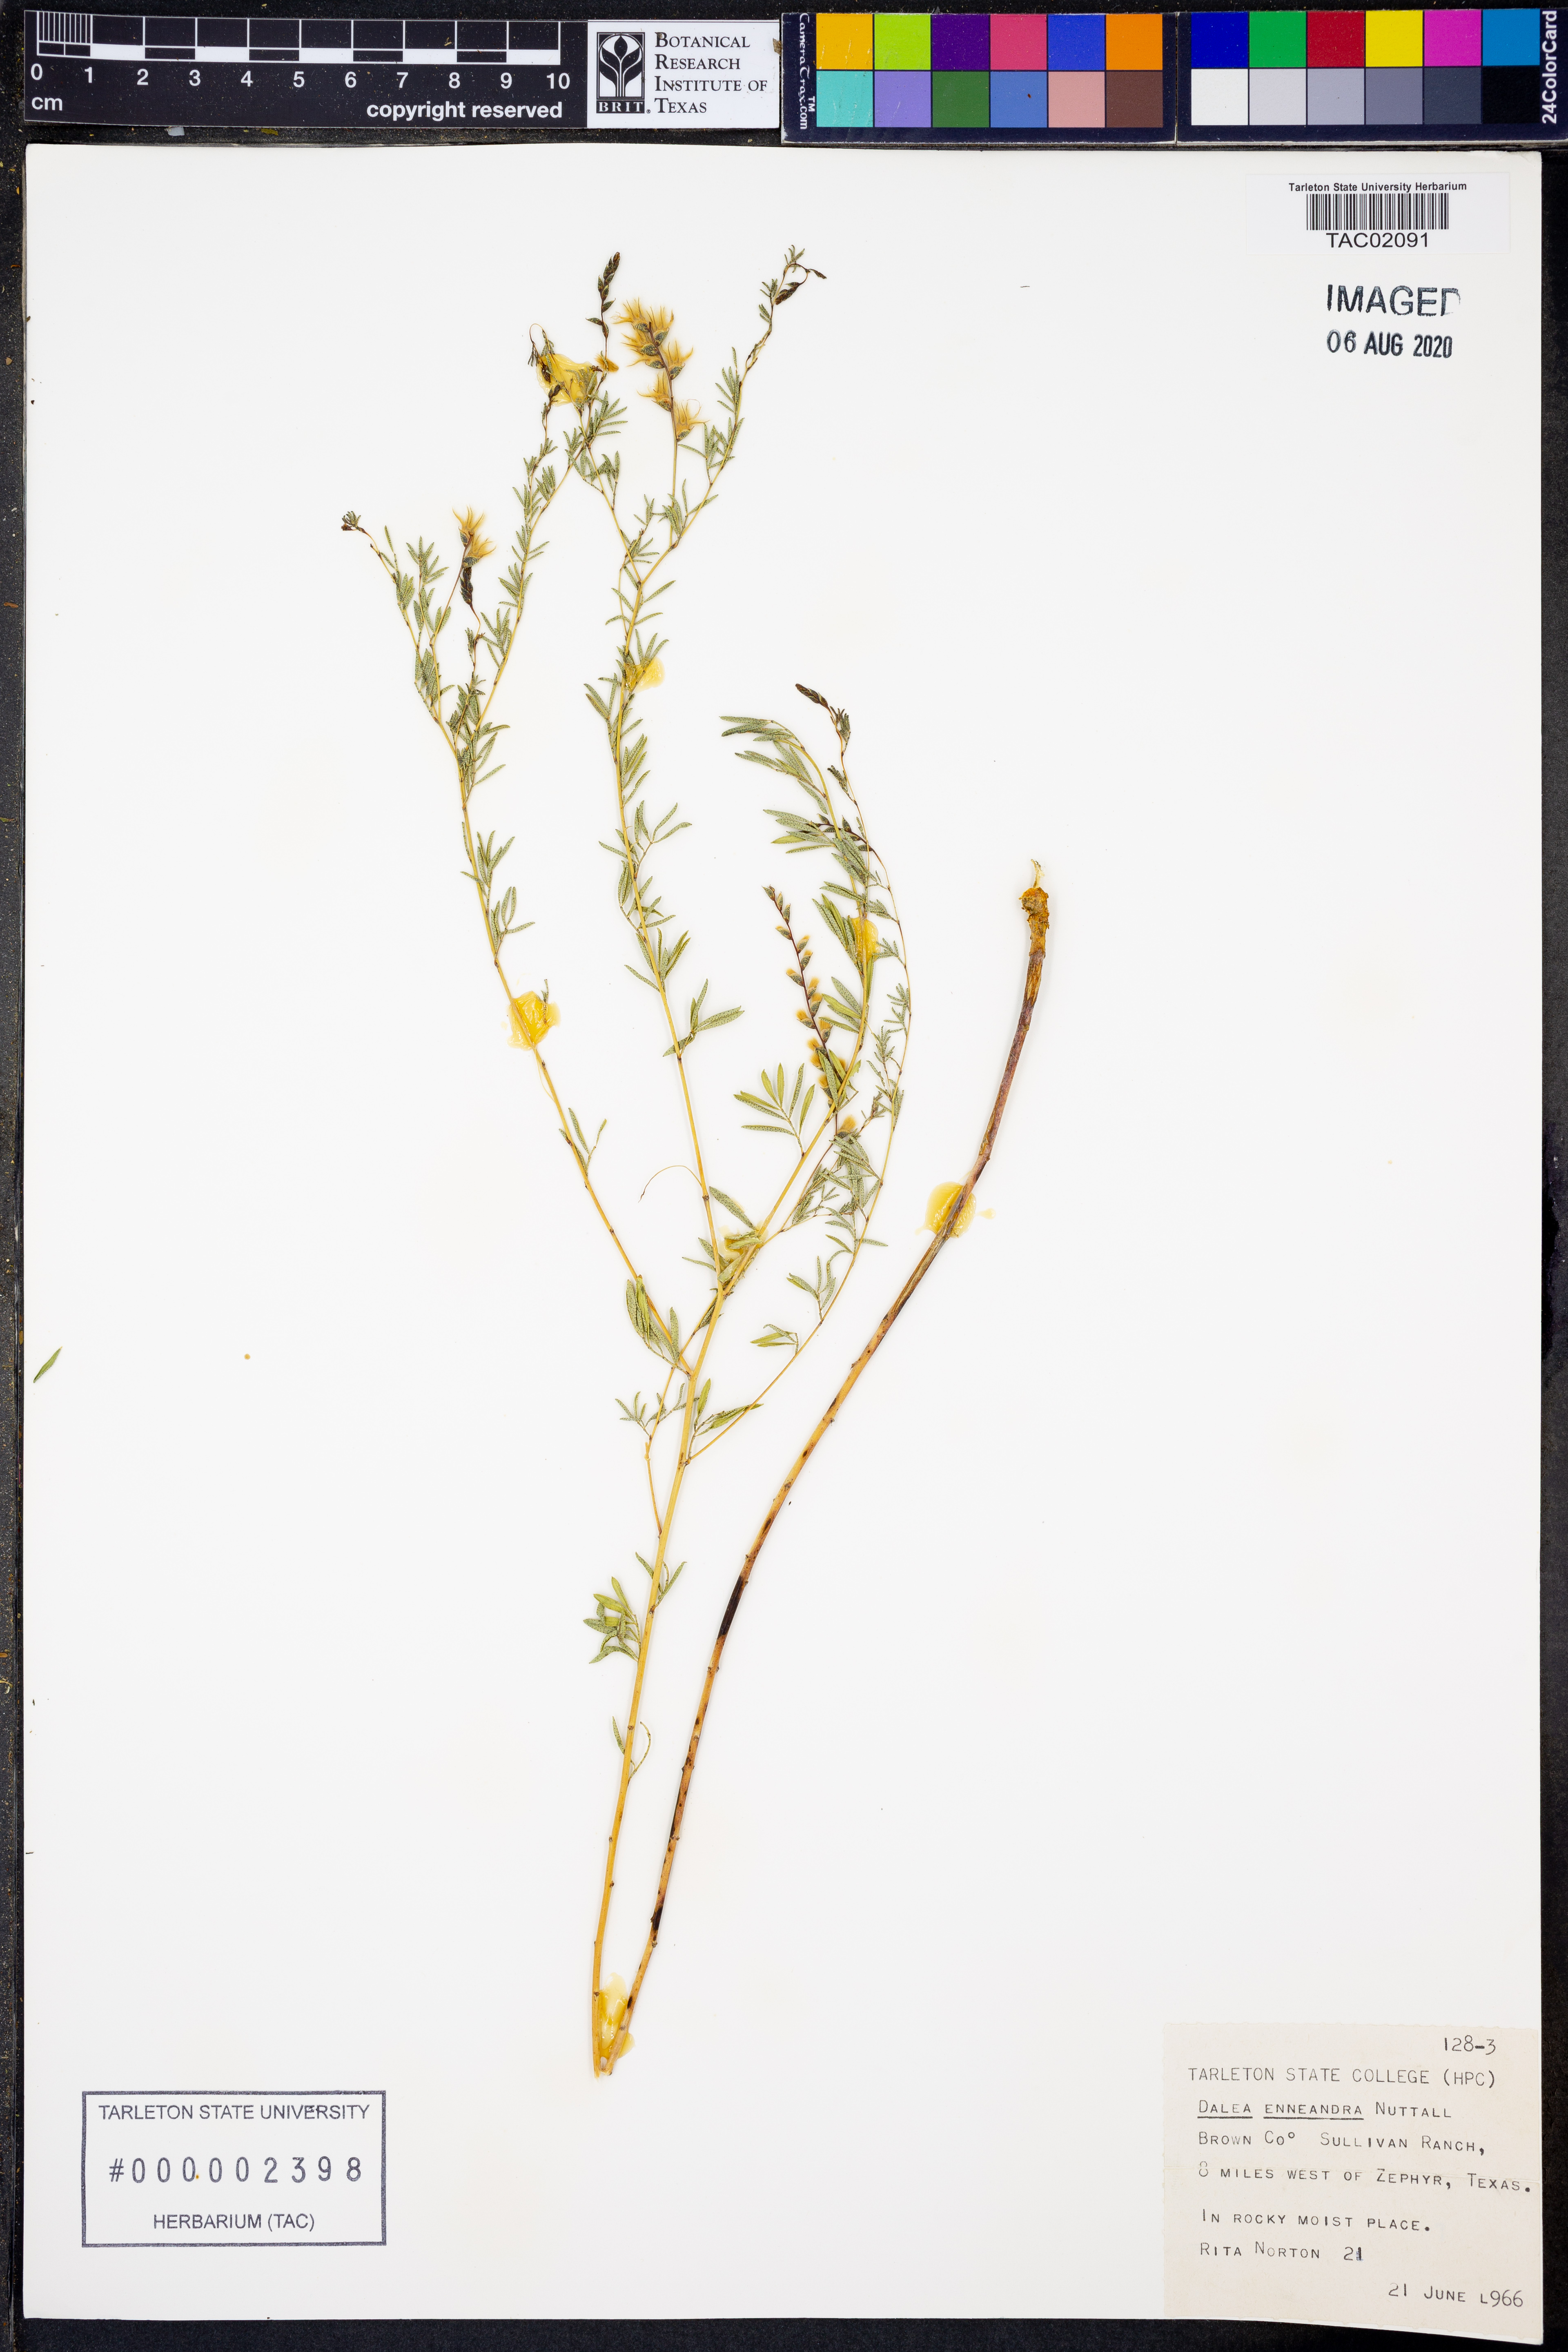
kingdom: Plantae
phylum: Tracheophyta
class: Magnoliopsida
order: Fabales
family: Fabaceae
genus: Dalea
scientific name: Dalea enneandra
